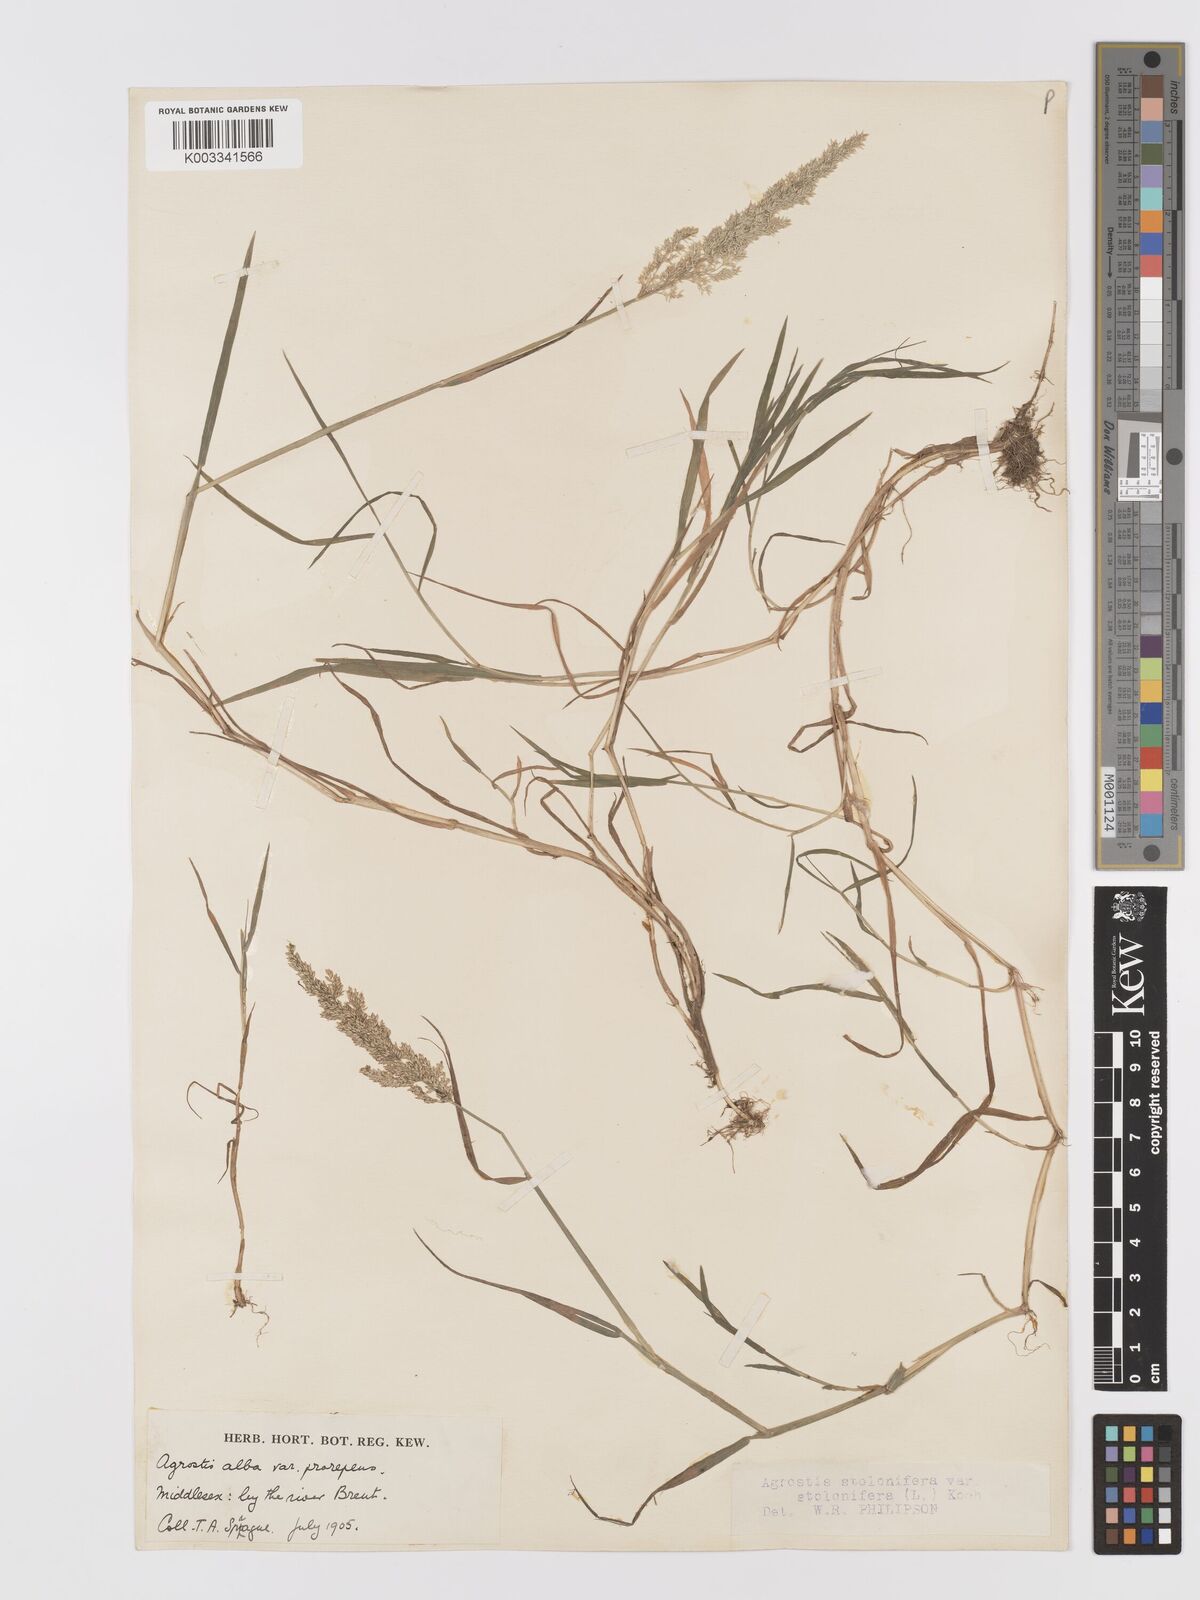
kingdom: Plantae
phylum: Tracheophyta
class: Liliopsida
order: Poales
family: Poaceae
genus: Agrostis
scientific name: Agrostis stolonifera
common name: Creeping bentgrass
